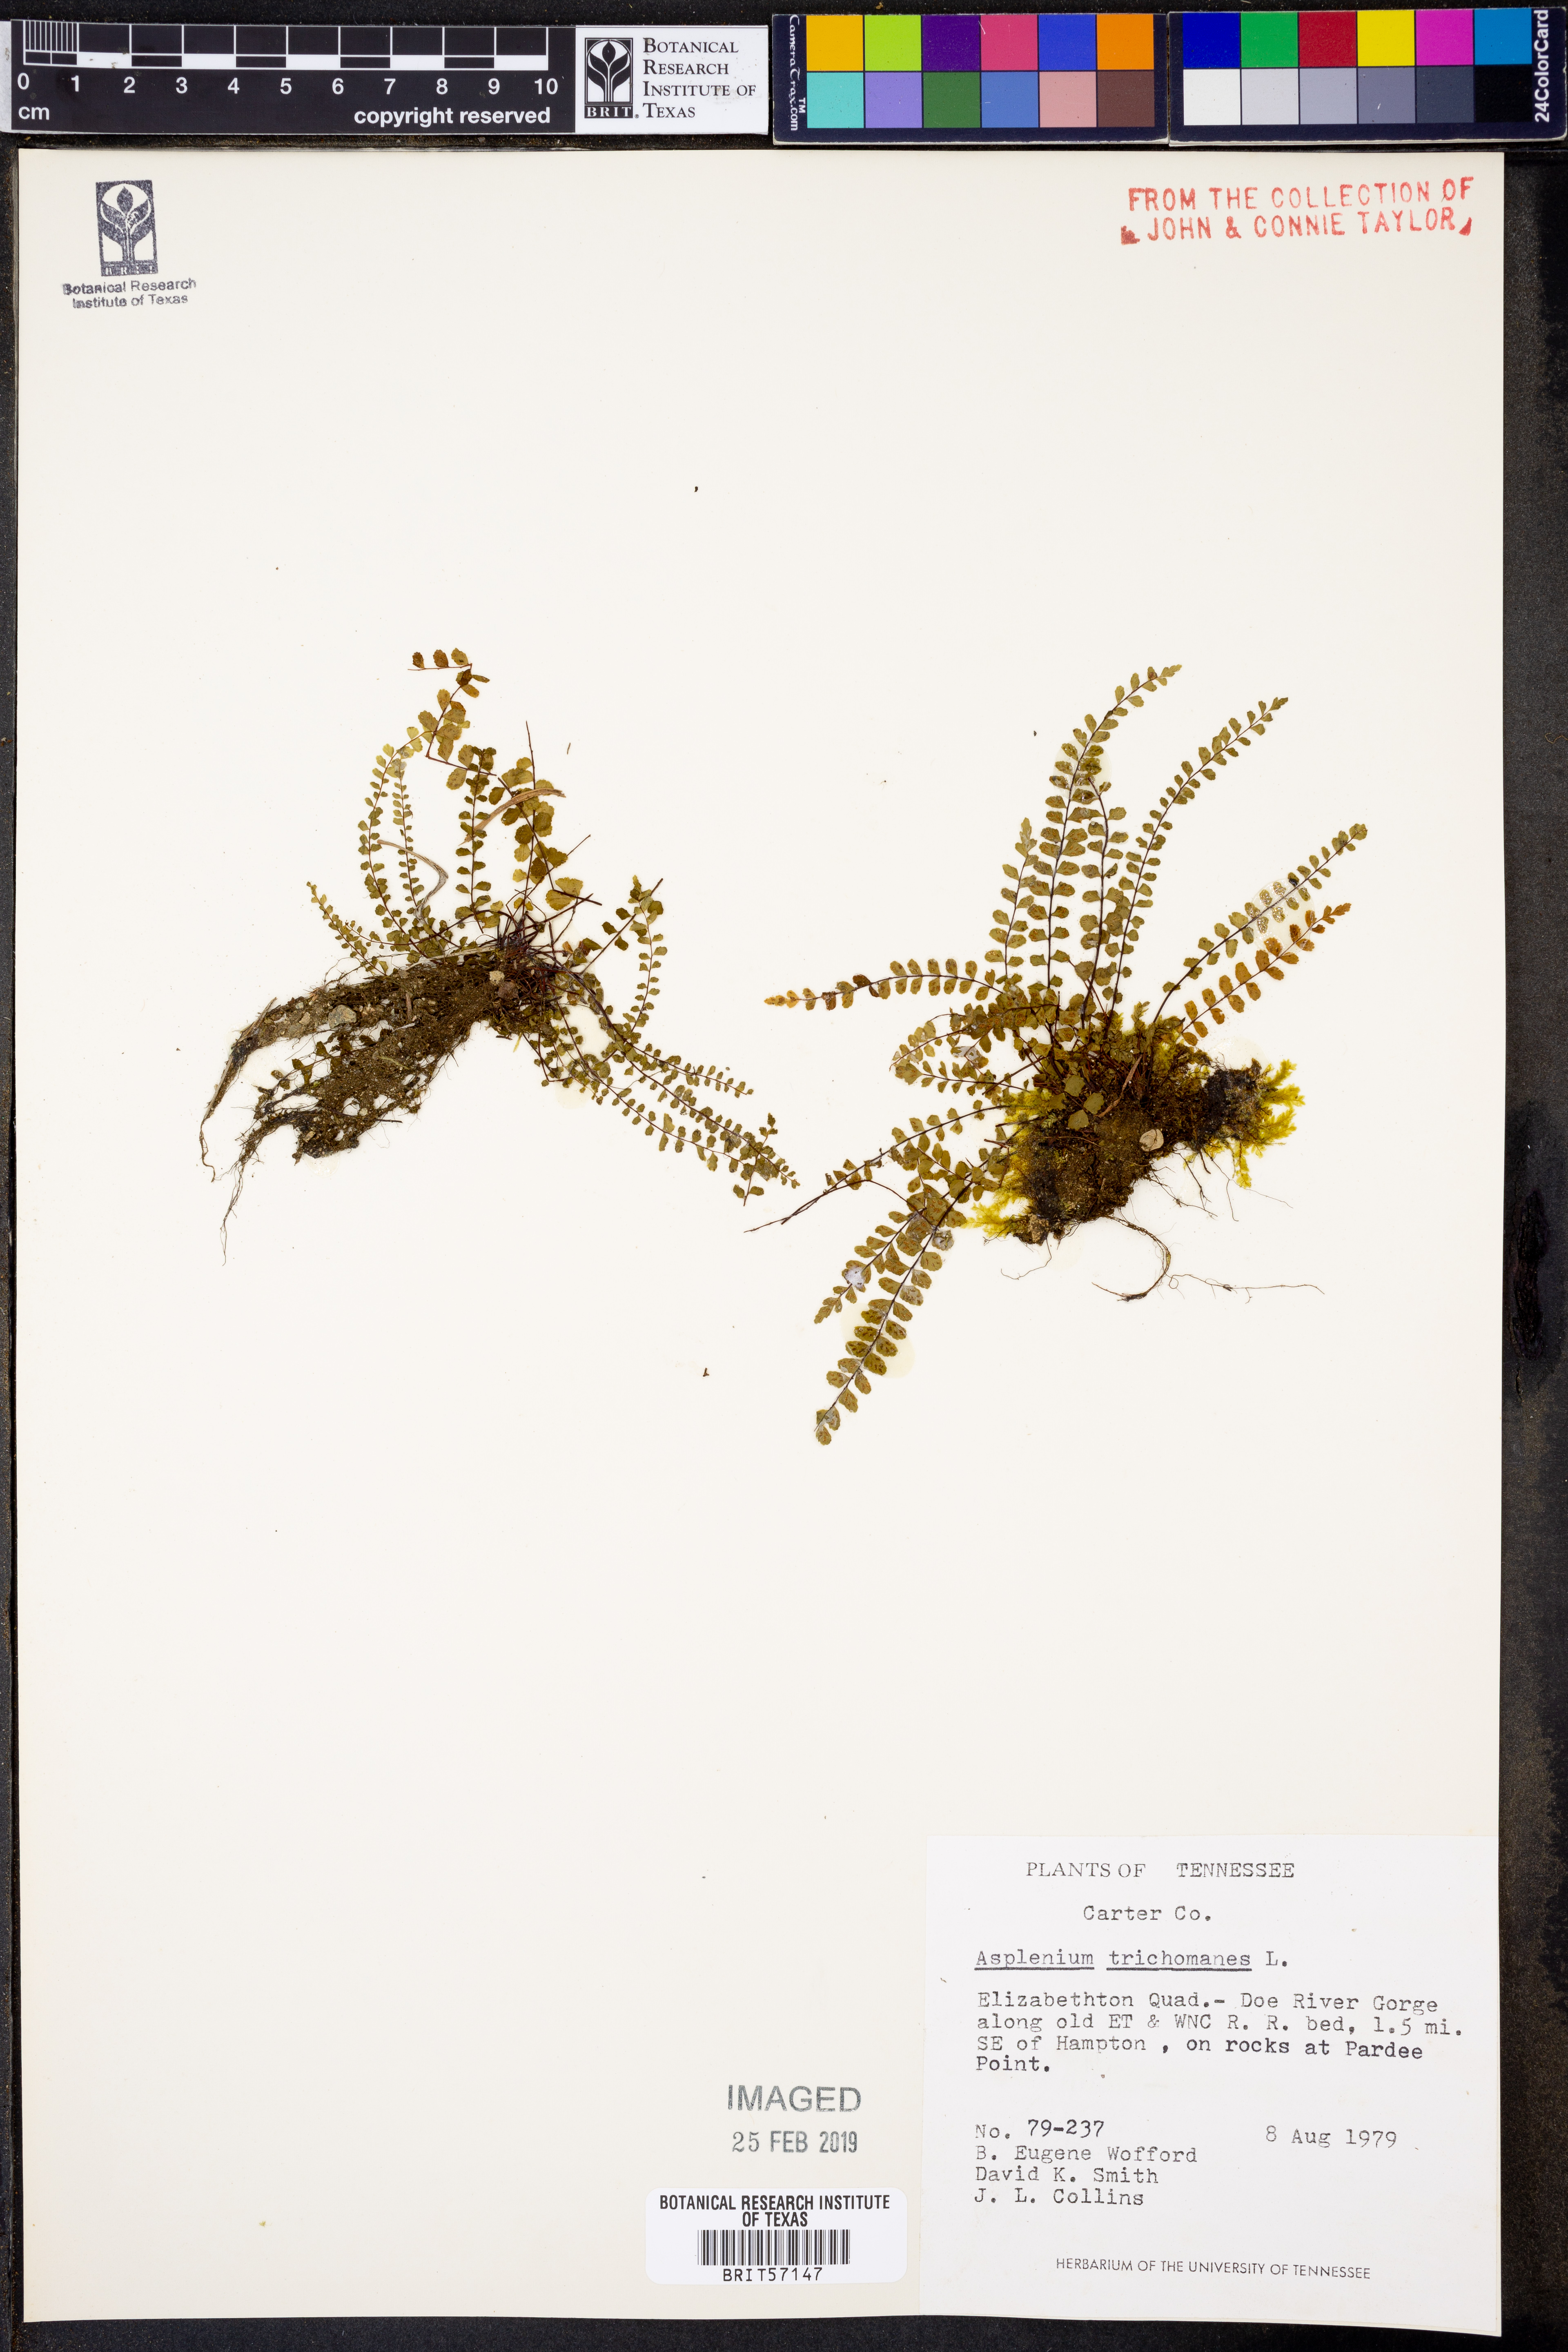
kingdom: Plantae
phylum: Tracheophyta
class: Polypodiopsida
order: Polypodiales
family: Aspleniaceae
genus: Asplenium
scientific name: Asplenium trichomanes
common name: Maidenhair spleenwort
